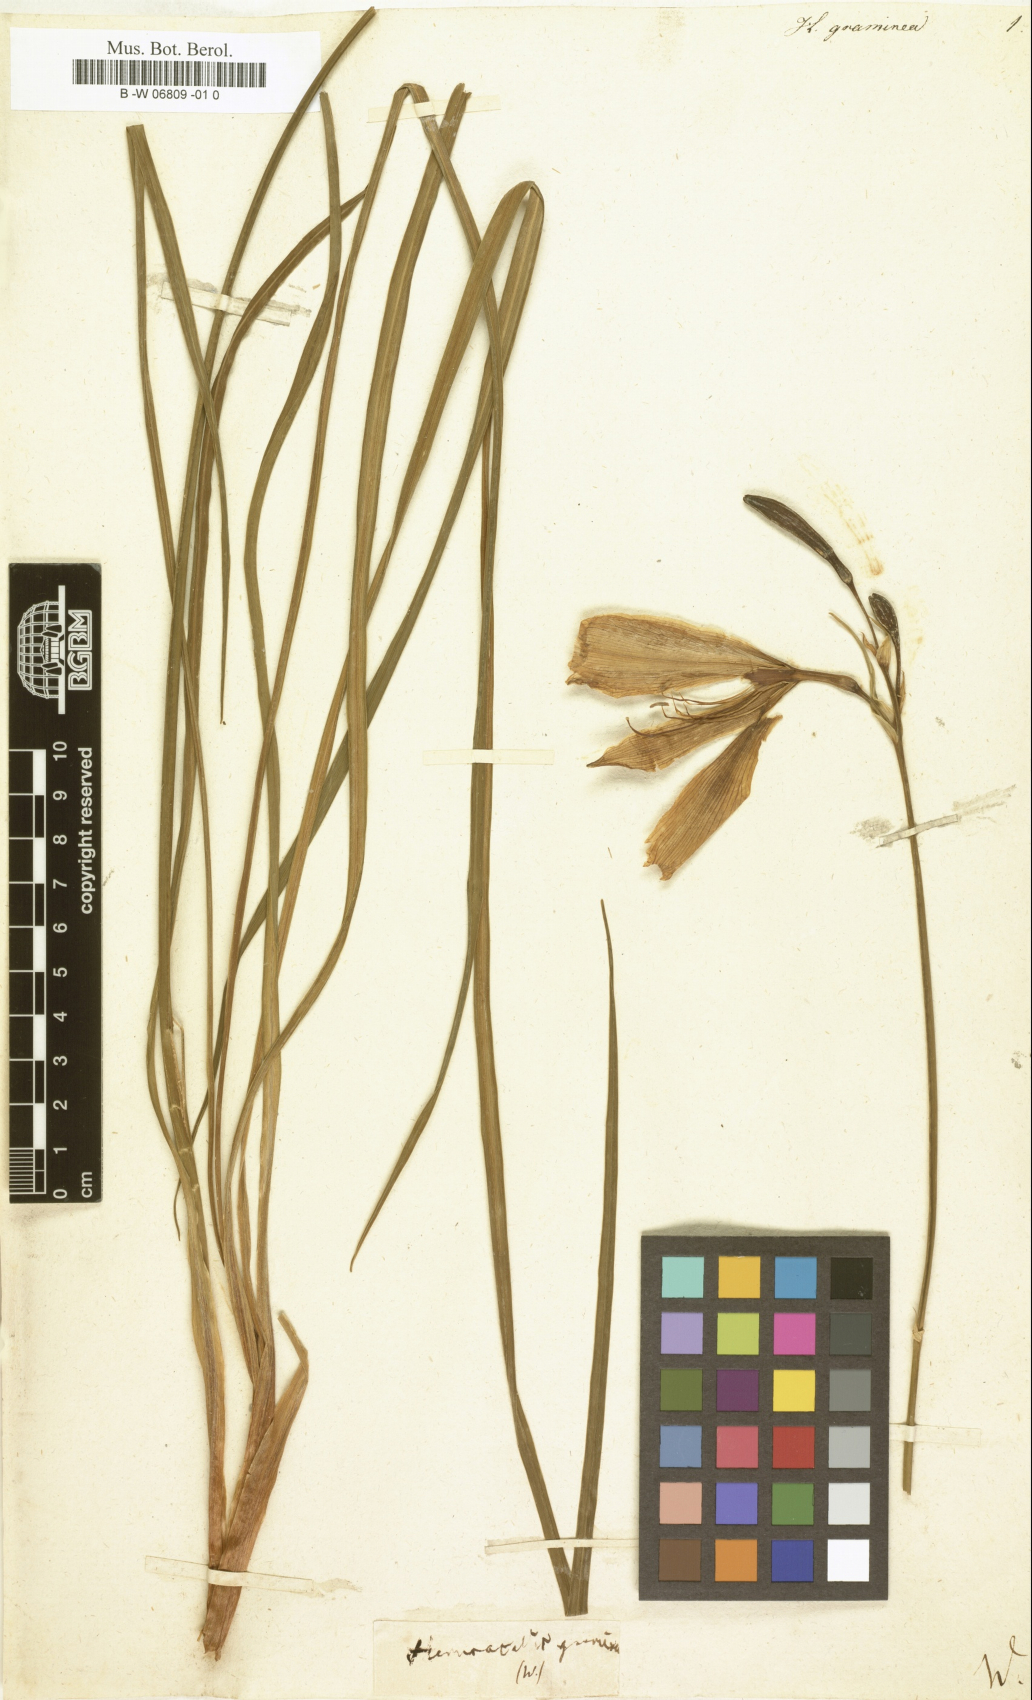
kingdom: Plantae
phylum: Tracheophyta
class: Liliopsida
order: Asparagales
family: Asphodelaceae
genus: Hemerocallis
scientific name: Hemerocallis graminea
